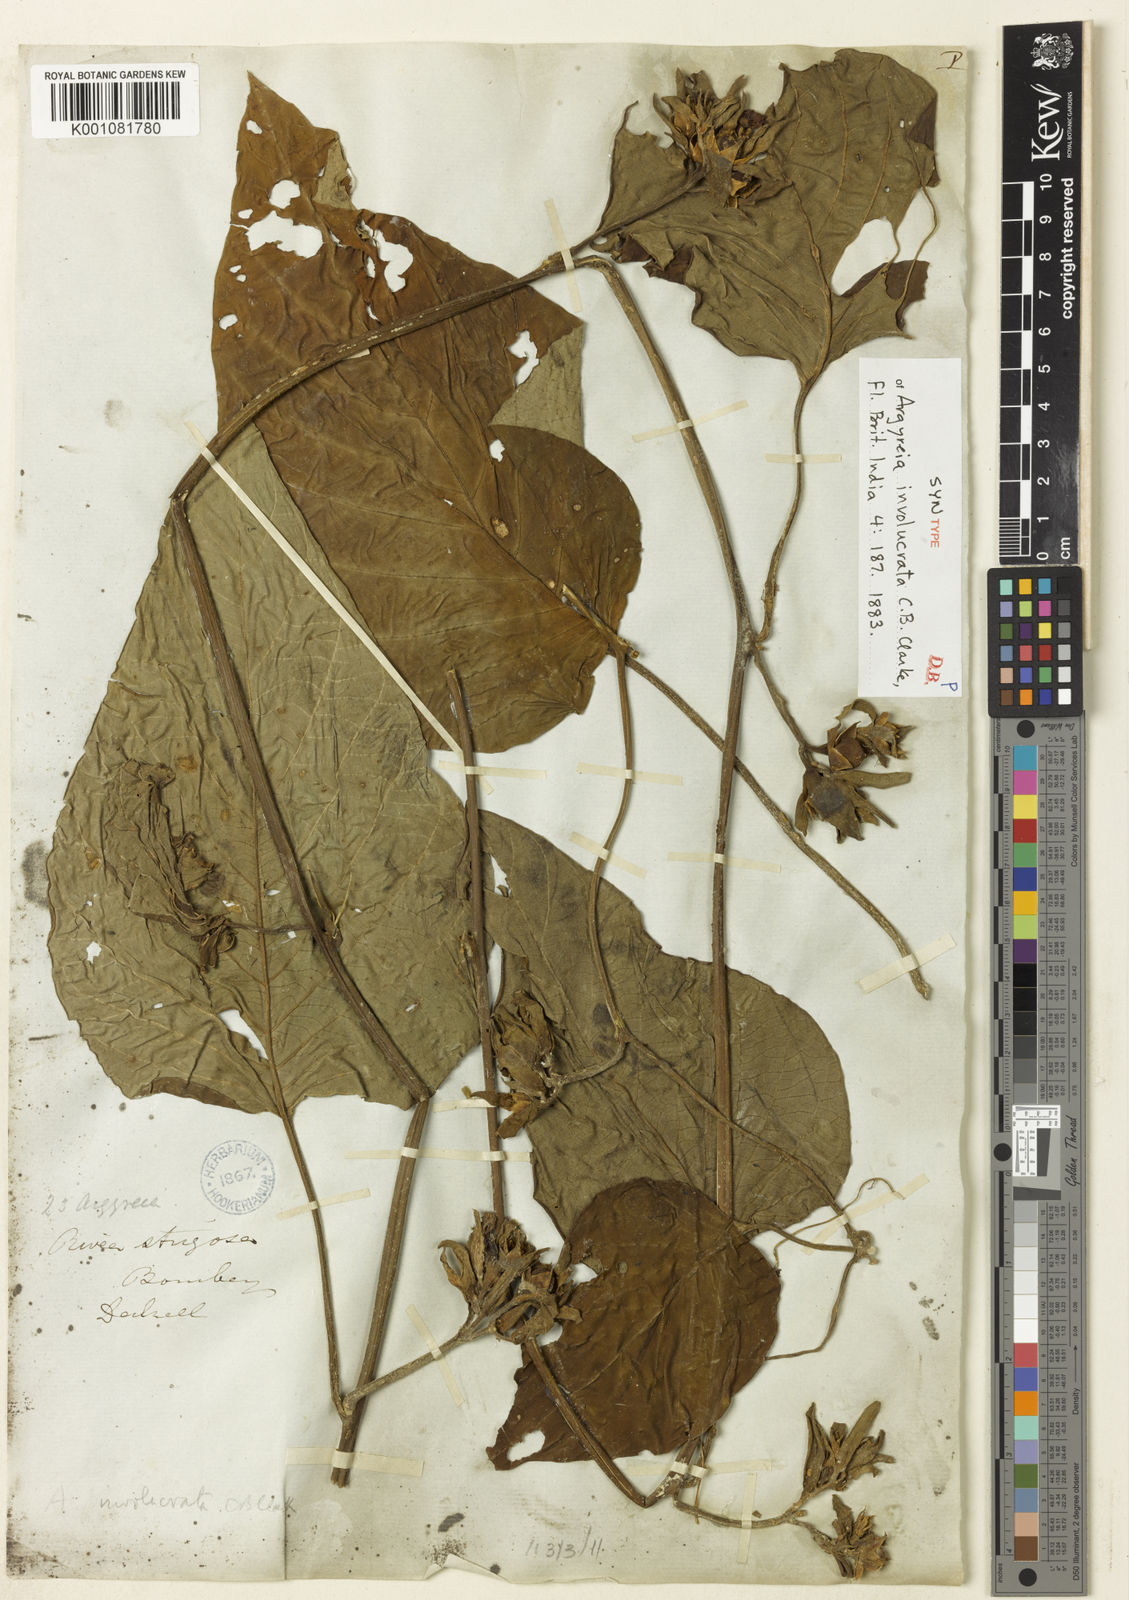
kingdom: Plantae
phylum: Tracheophyta
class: Magnoliopsida
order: Solanales
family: Convolvulaceae
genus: Argyreia
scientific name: Argyreia involucrata
